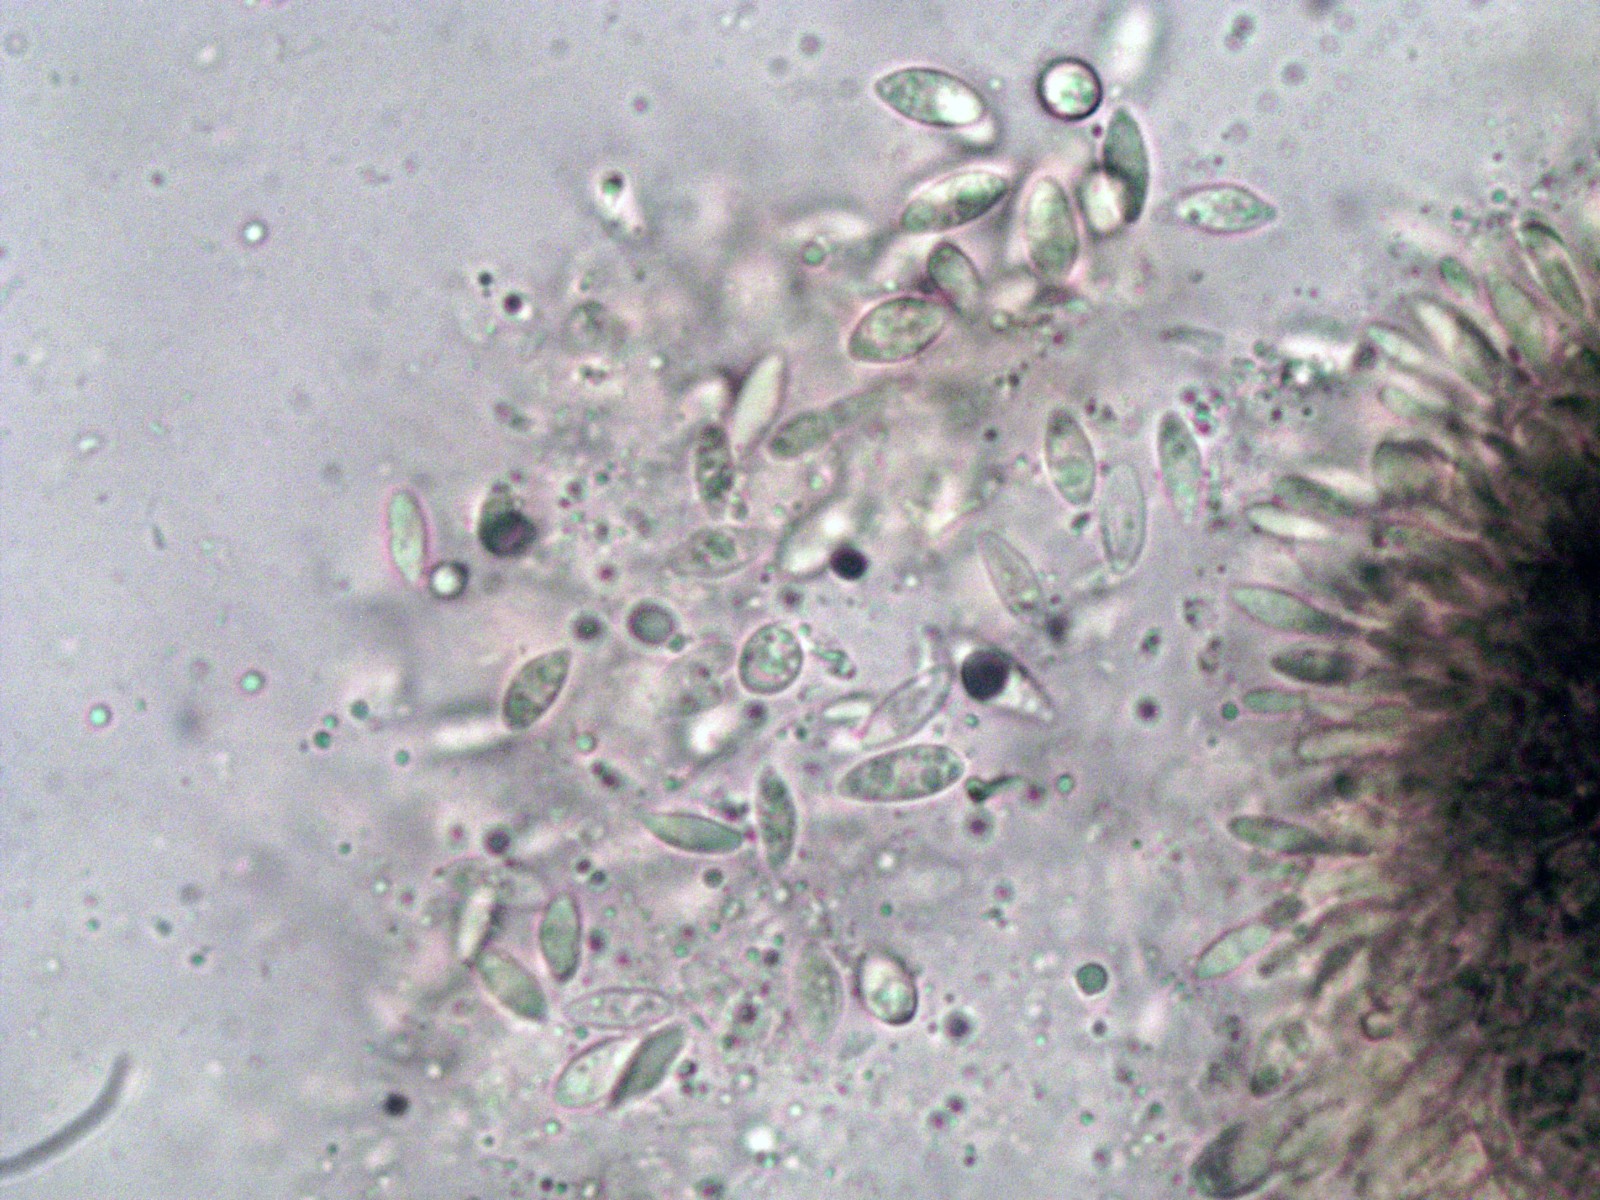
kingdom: Fungi
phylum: Ascomycota
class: Sordariomycetes
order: Diaporthales
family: Diaporthaceae
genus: Diaporthe
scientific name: Diaporthe stictica
